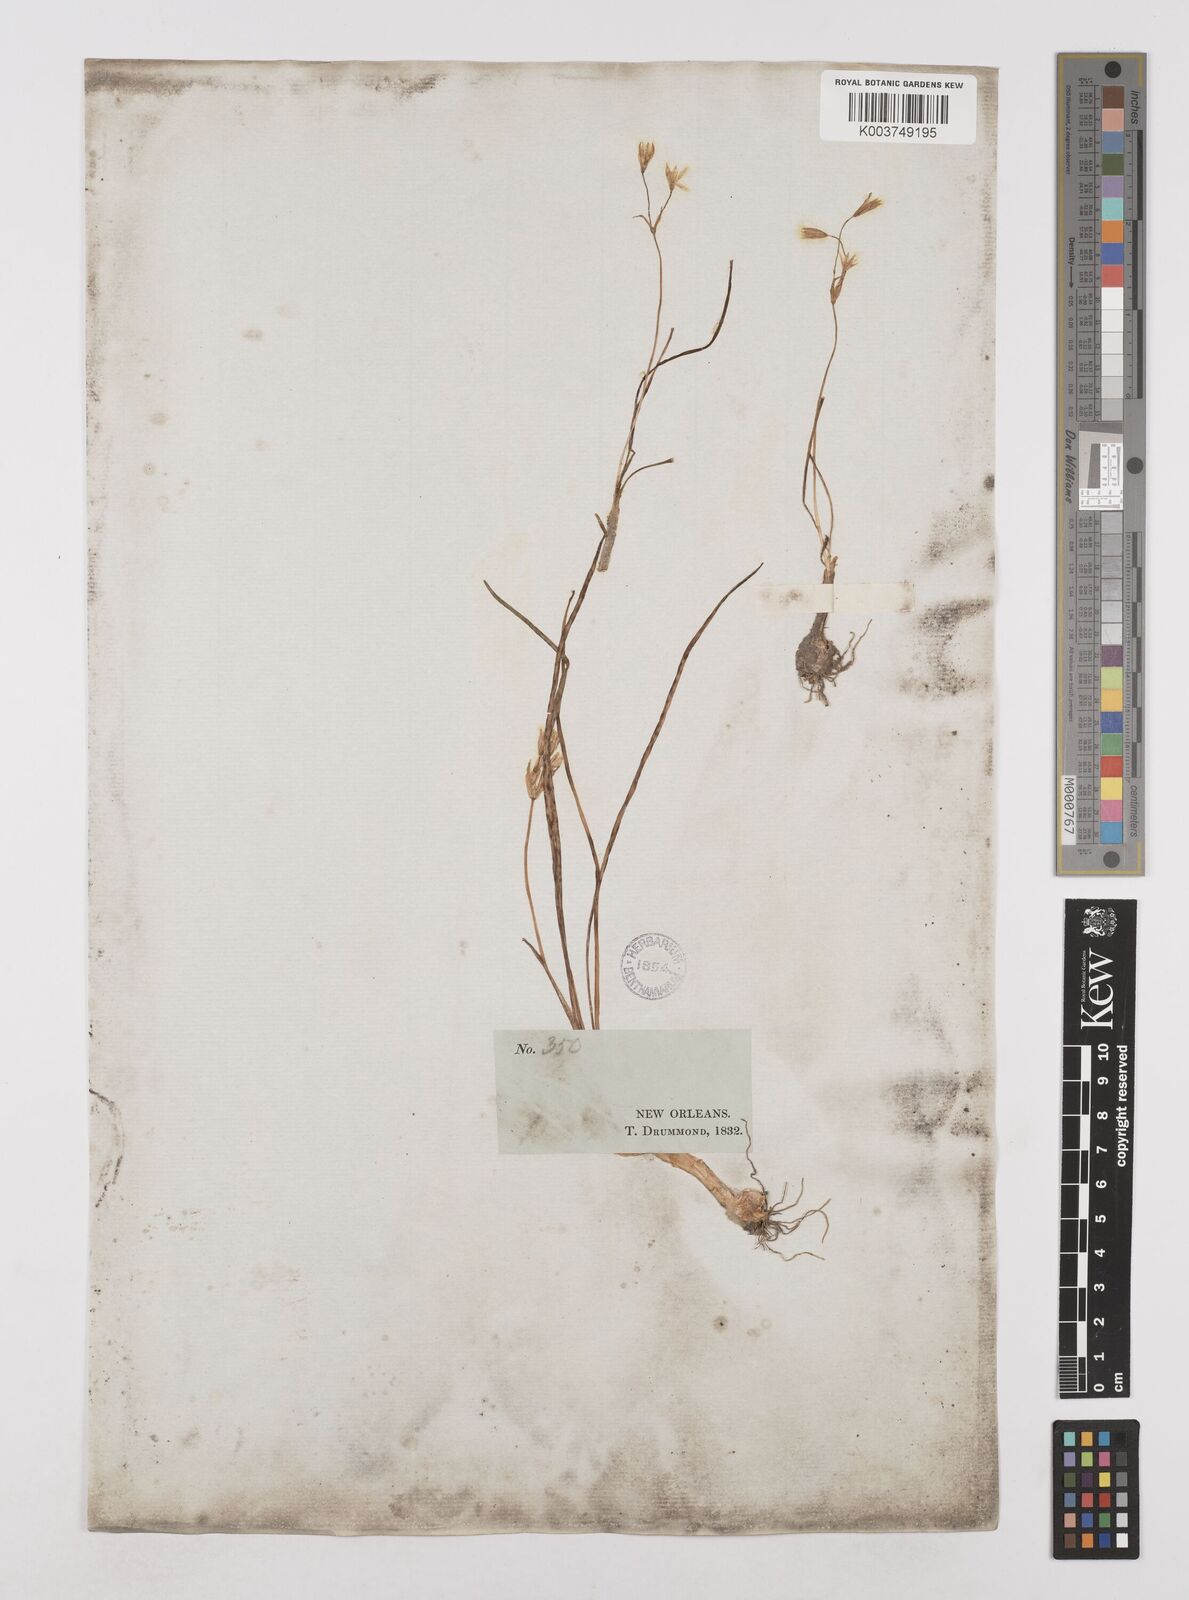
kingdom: Plantae
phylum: Tracheophyta
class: Liliopsida
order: Asparagales
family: Amaryllidaceae
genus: Nothoscordum
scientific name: Nothoscordum bivalve
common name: Crow-poison
